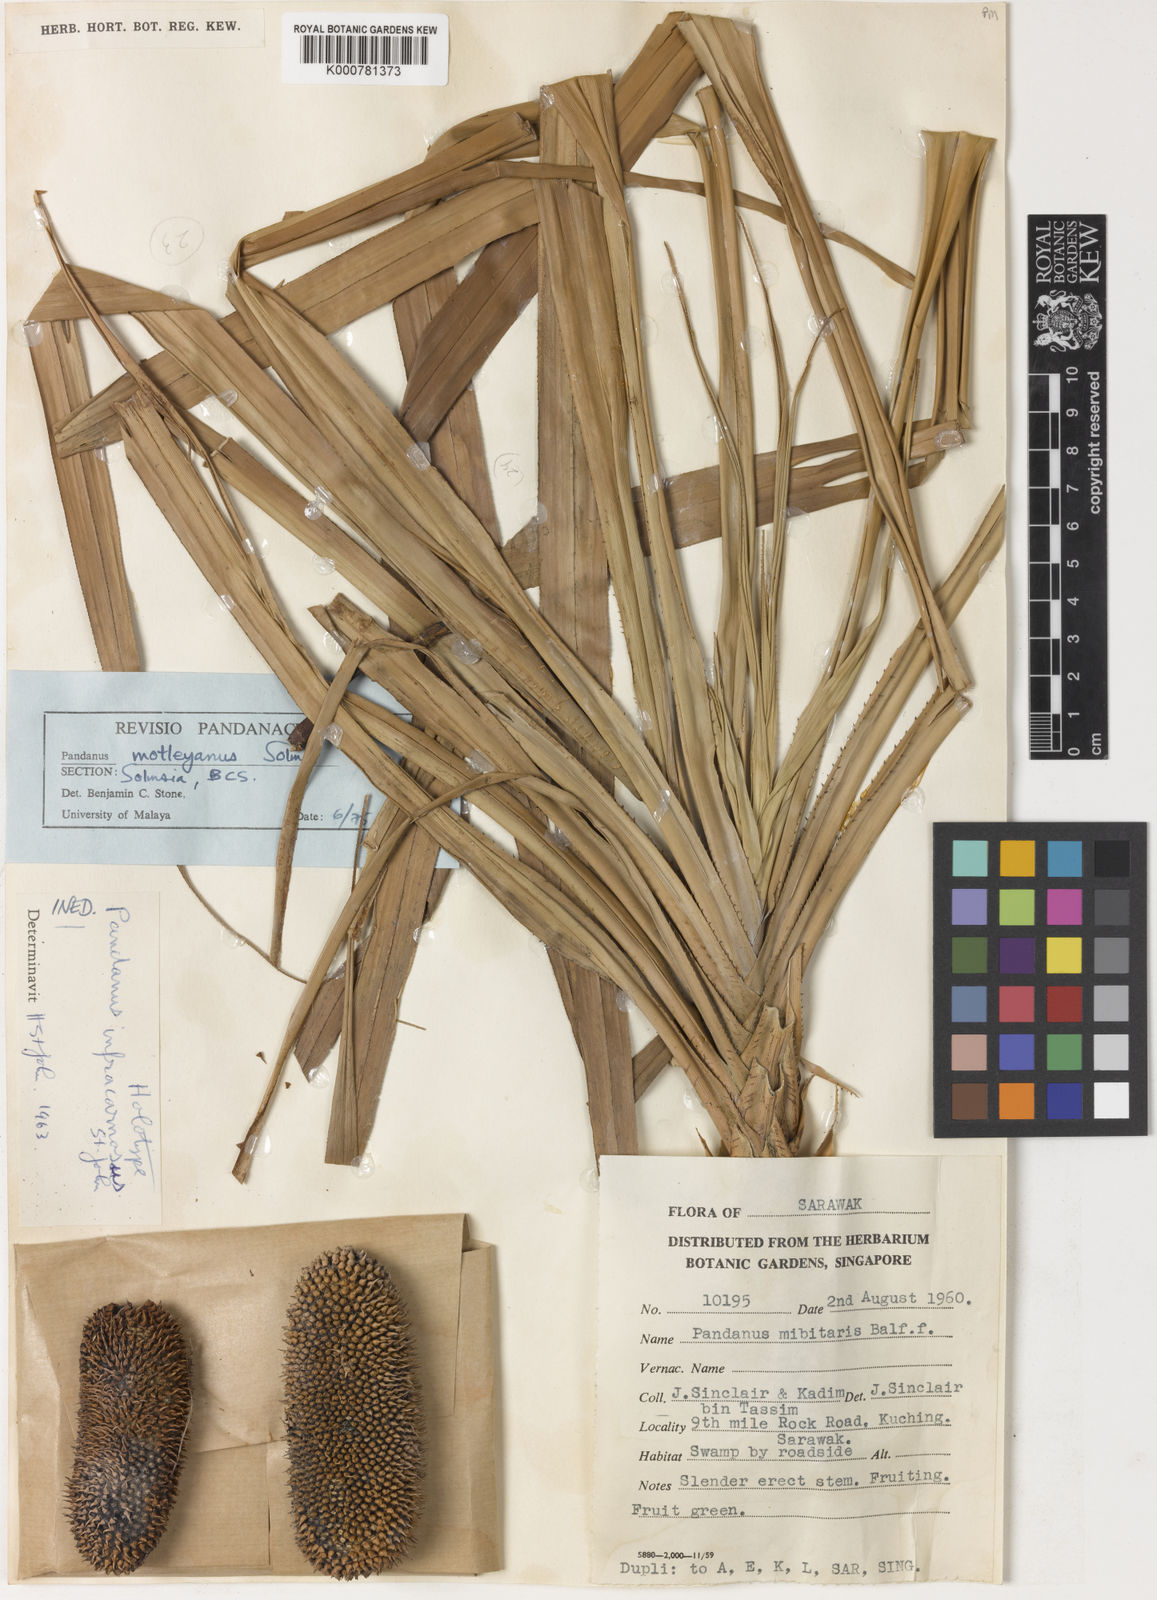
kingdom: Plantae
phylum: Tracheophyta
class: Liliopsida
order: Pandanales
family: Pandanaceae
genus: Pandanus
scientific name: Pandanus yvanii
